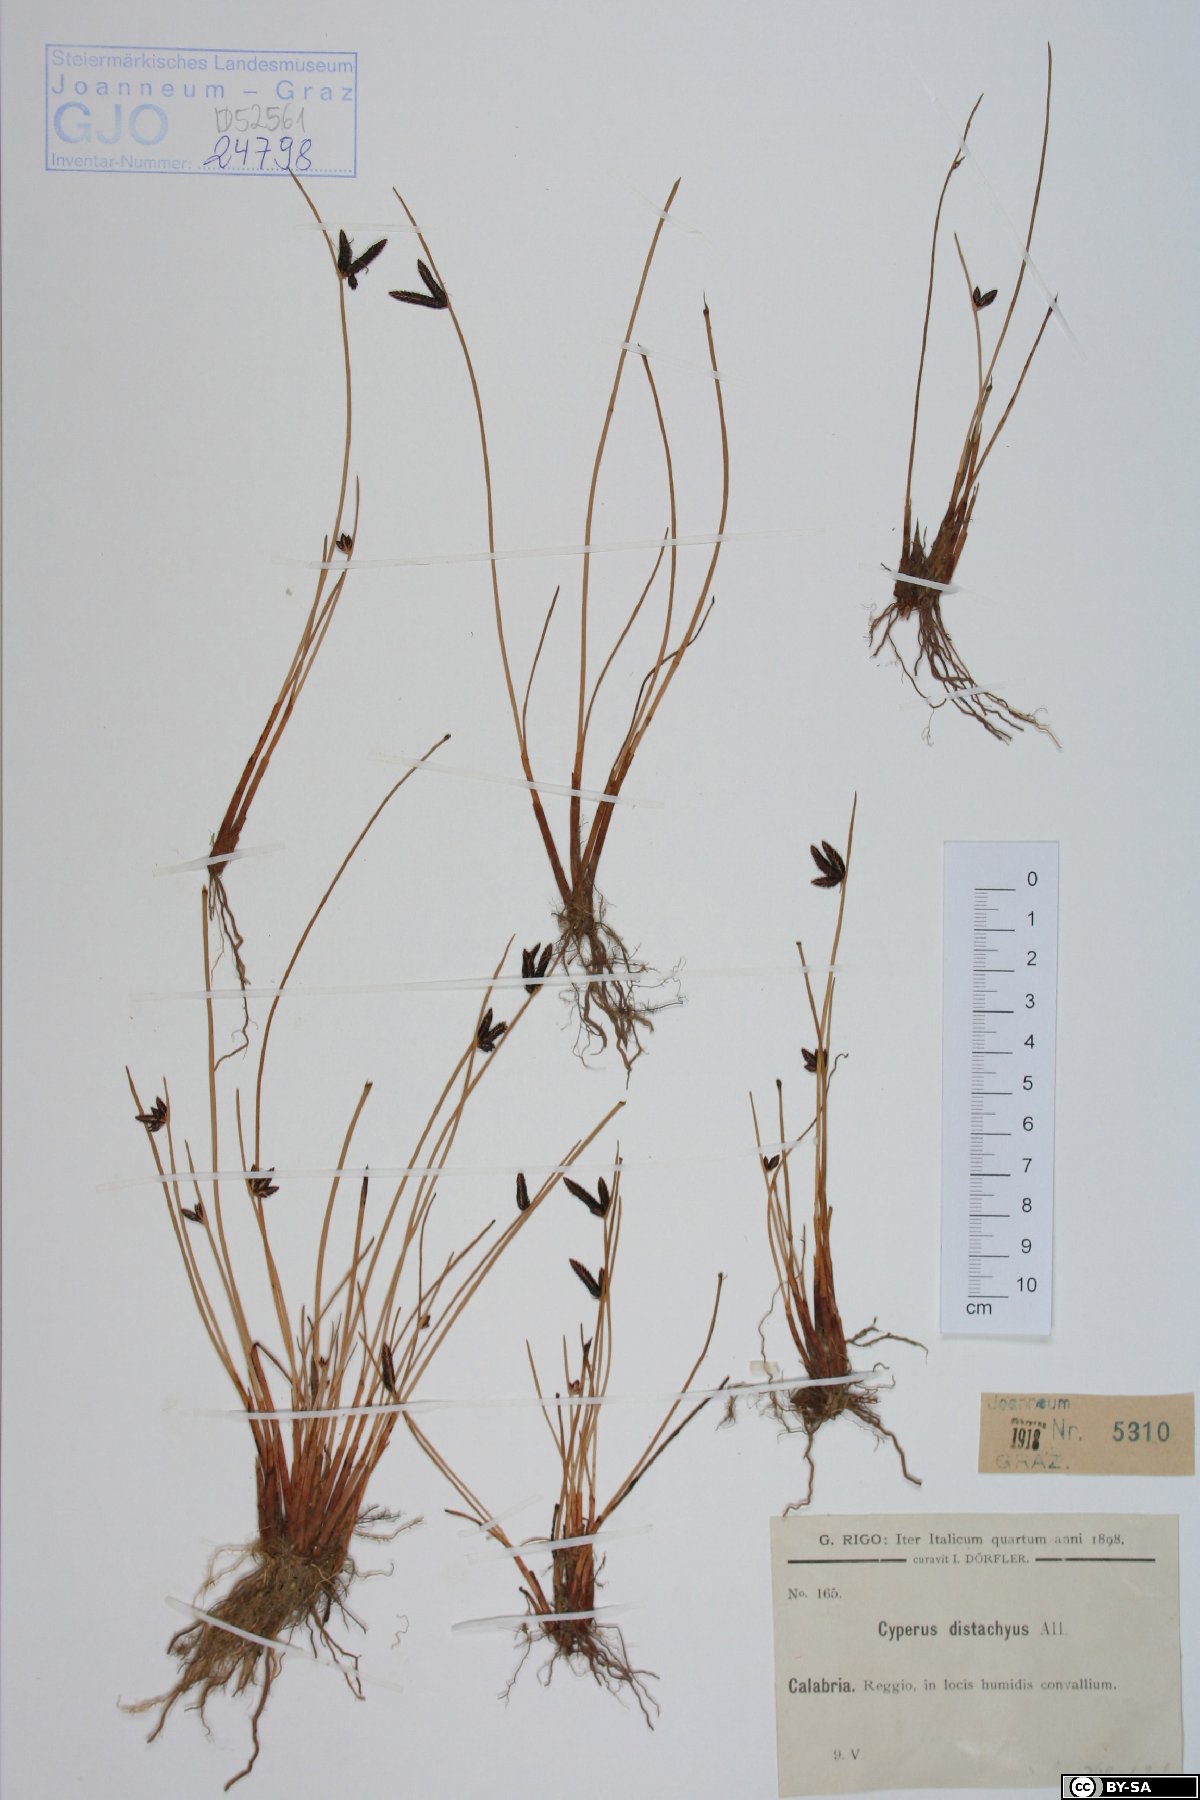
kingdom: Plantae
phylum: Tracheophyta
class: Liliopsida
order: Poales
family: Cyperaceae
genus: Cyperus
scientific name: Cyperus laevigatus
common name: Smooth flat sedge
